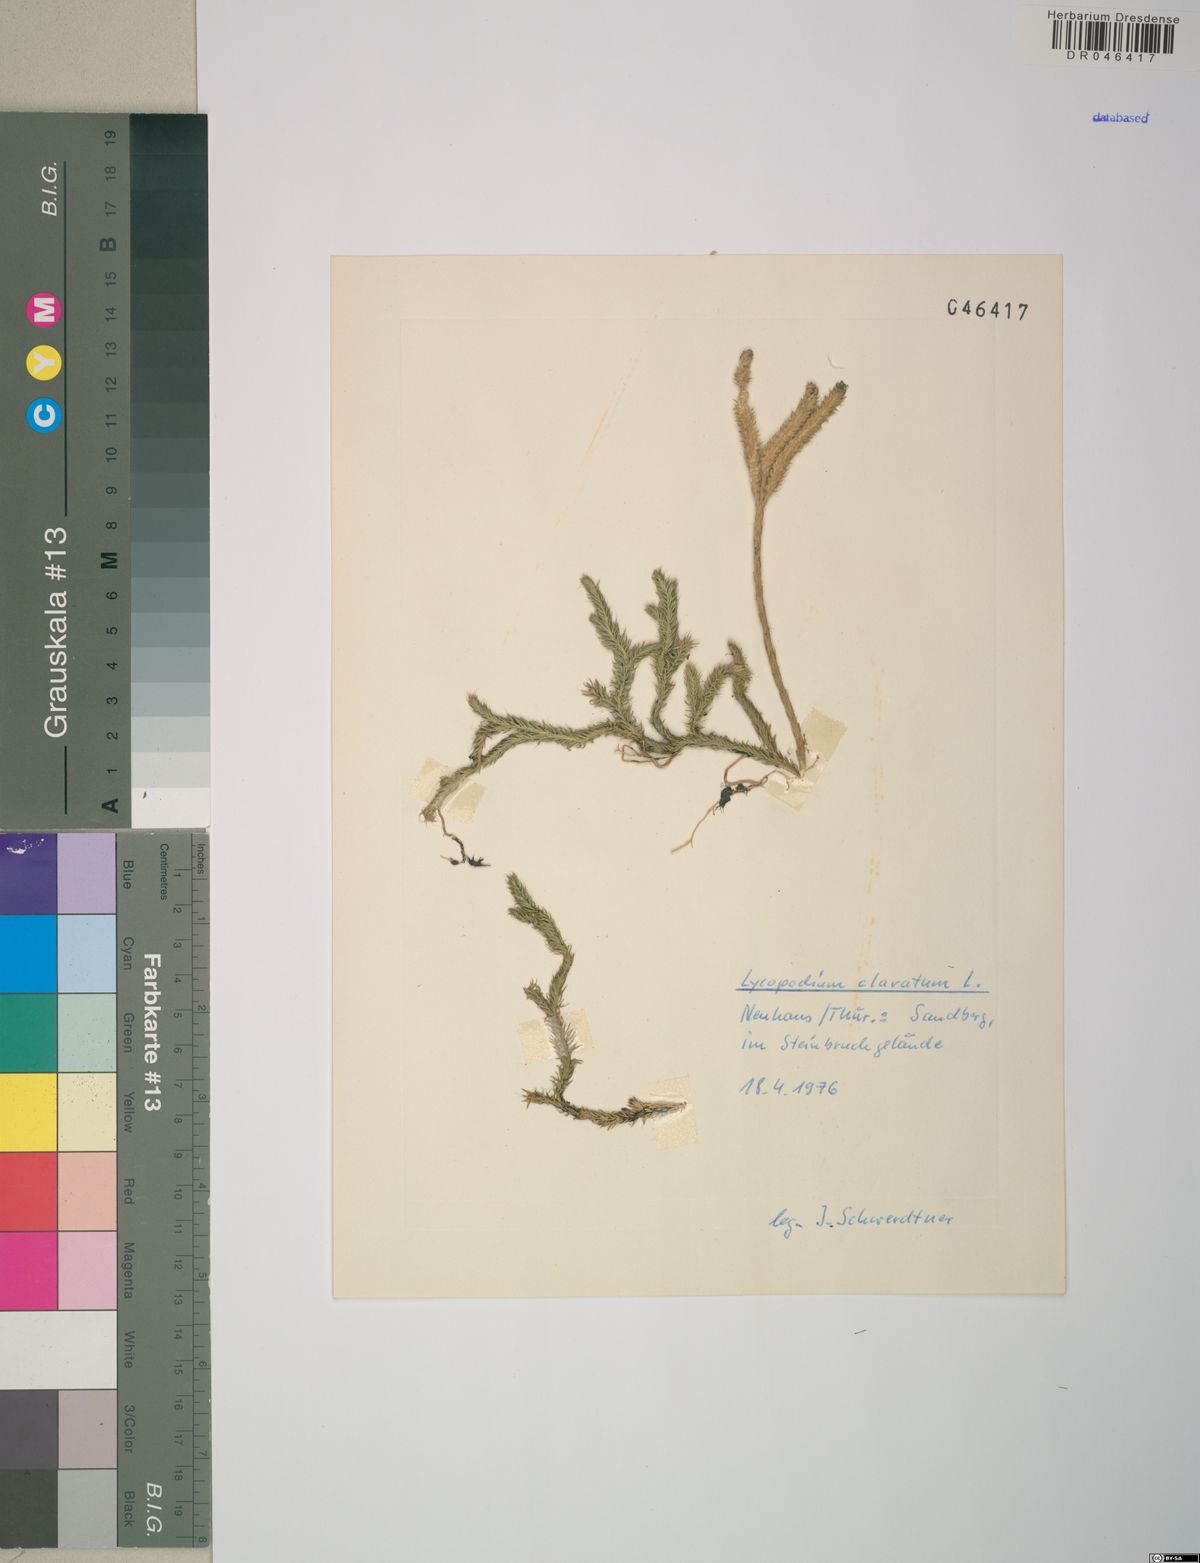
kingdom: Plantae
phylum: Tracheophyta
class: Lycopodiopsida
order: Lycopodiales
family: Lycopodiaceae
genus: Lycopodium
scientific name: Lycopodium clavatum
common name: Stag's-horn clubmoss
